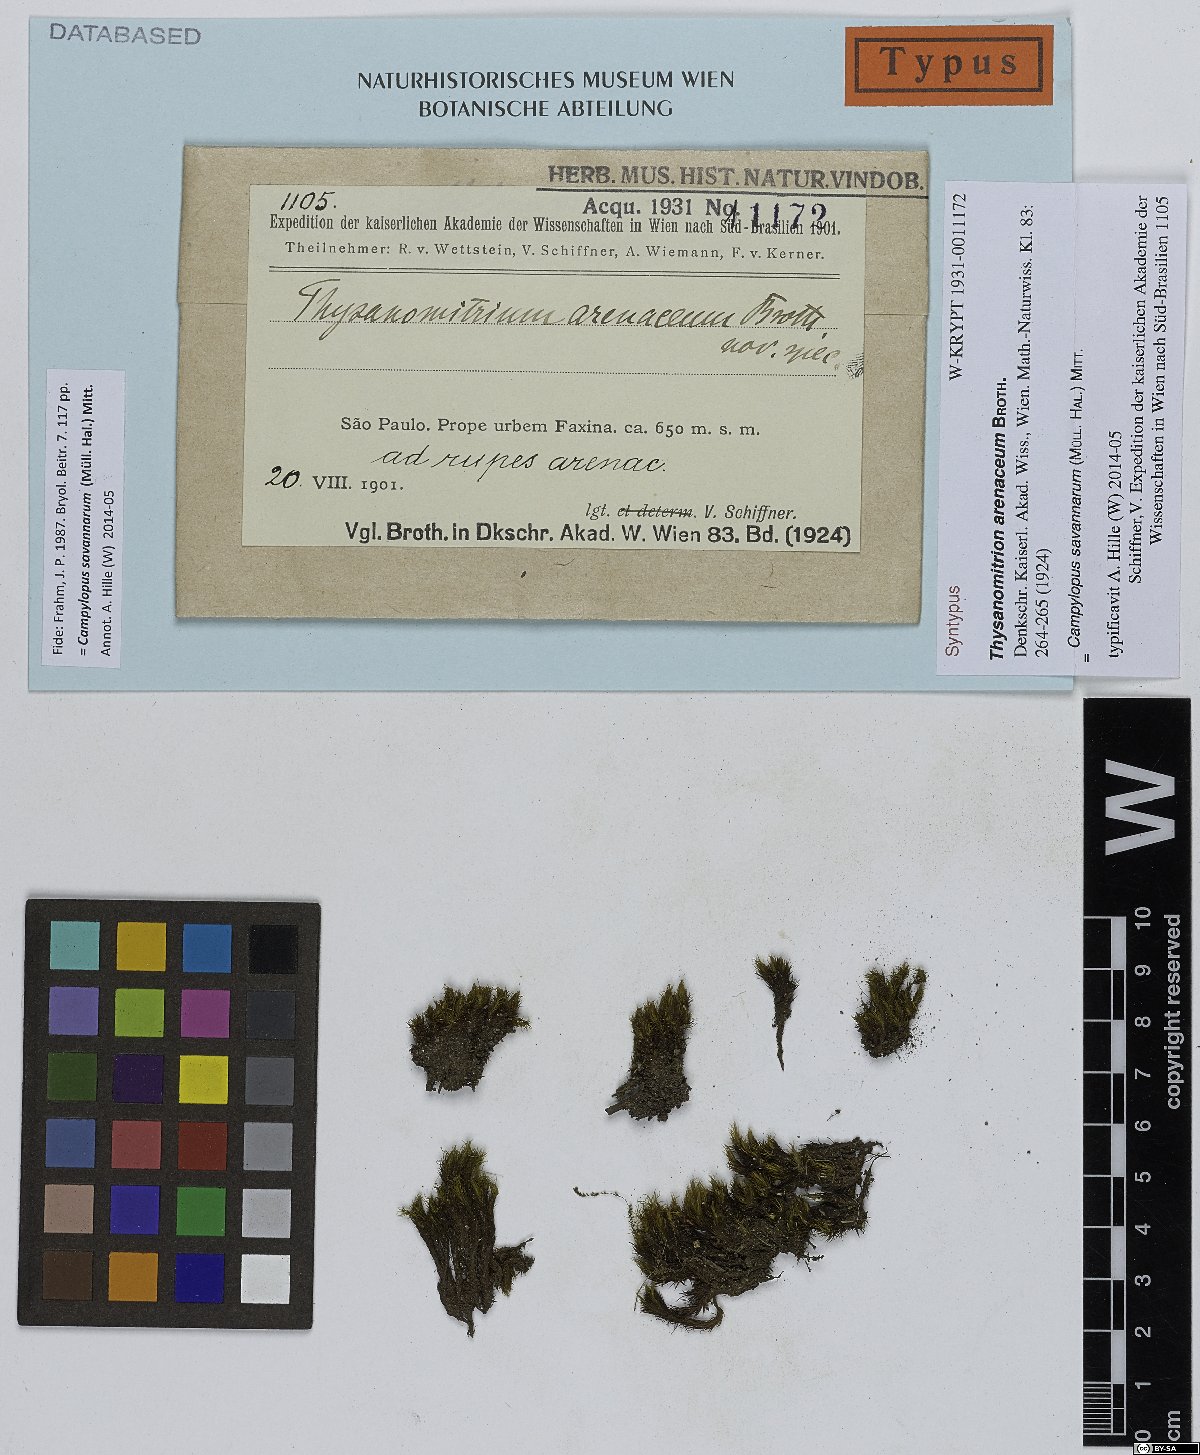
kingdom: Plantae
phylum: Bryophyta
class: Bryopsida
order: Dicranales
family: Leucobryaceae
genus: Campylopus
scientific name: Campylopus savannarum
